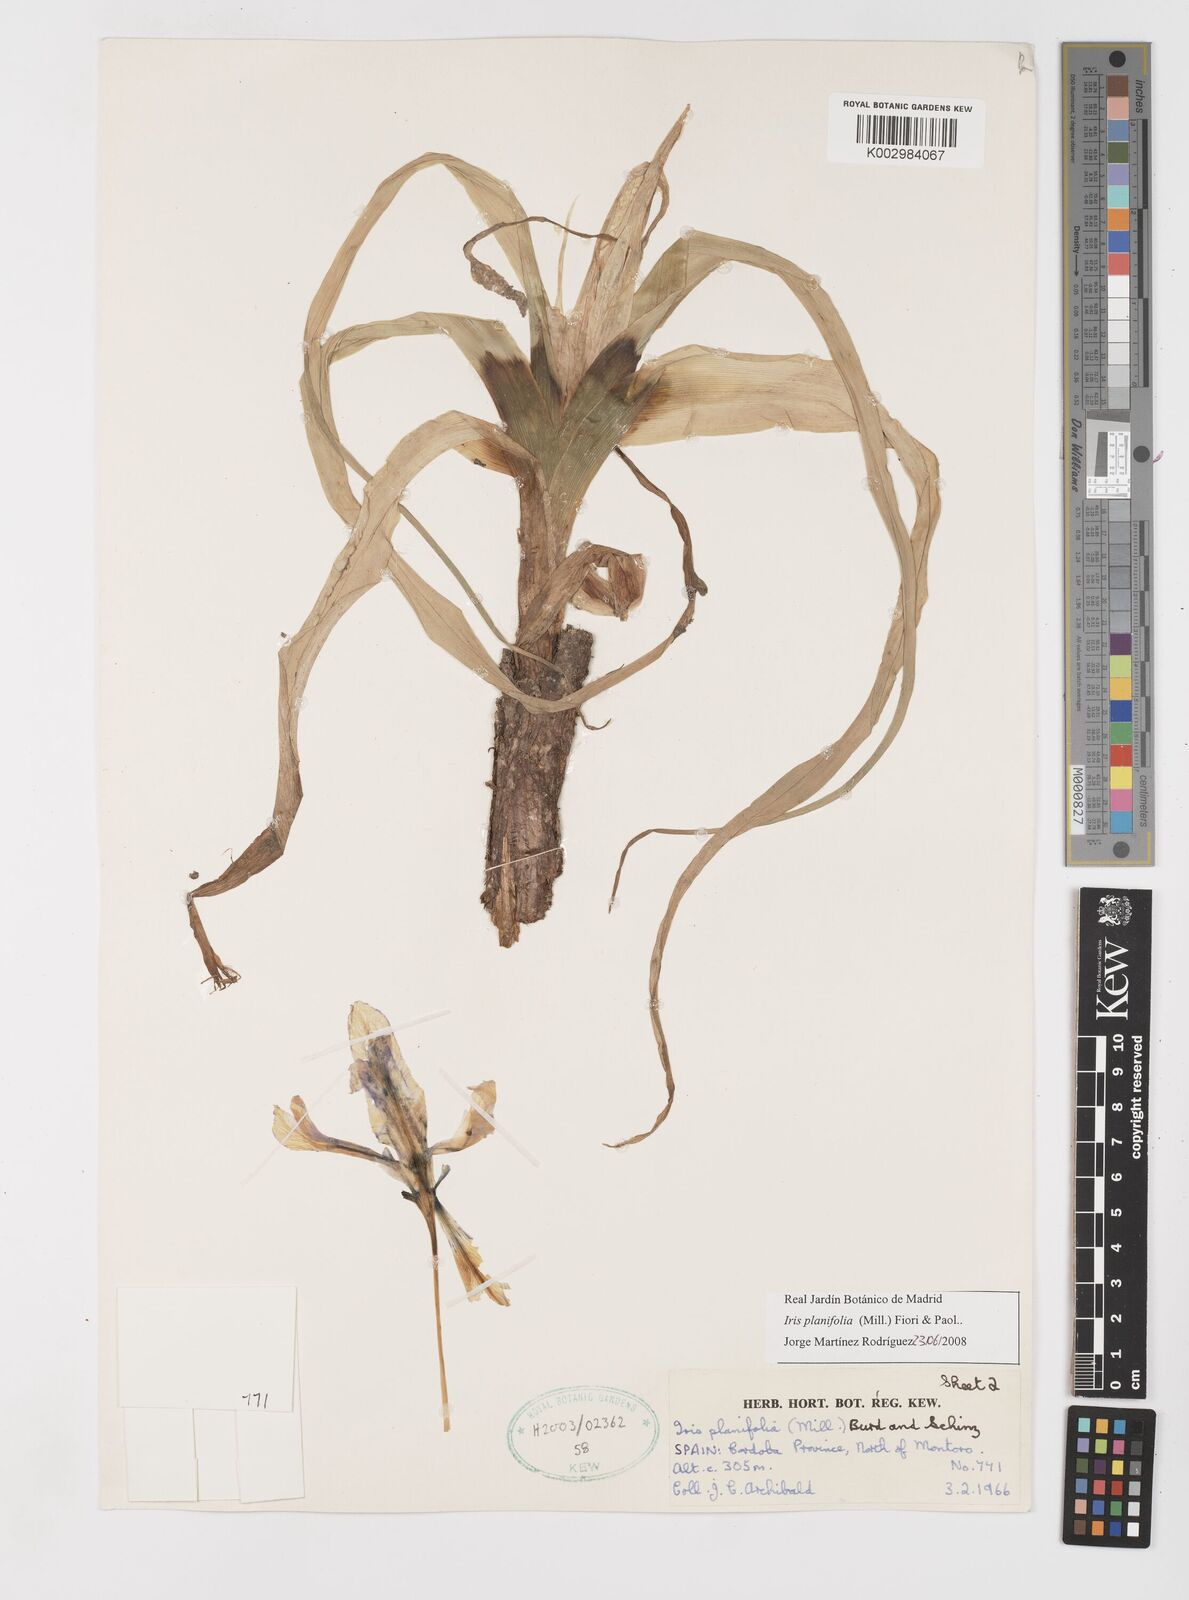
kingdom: Plantae
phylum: Tracheophyta
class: Liliopsida
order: Asparagales
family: Iridaceae
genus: Iris
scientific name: Iris planifolia
